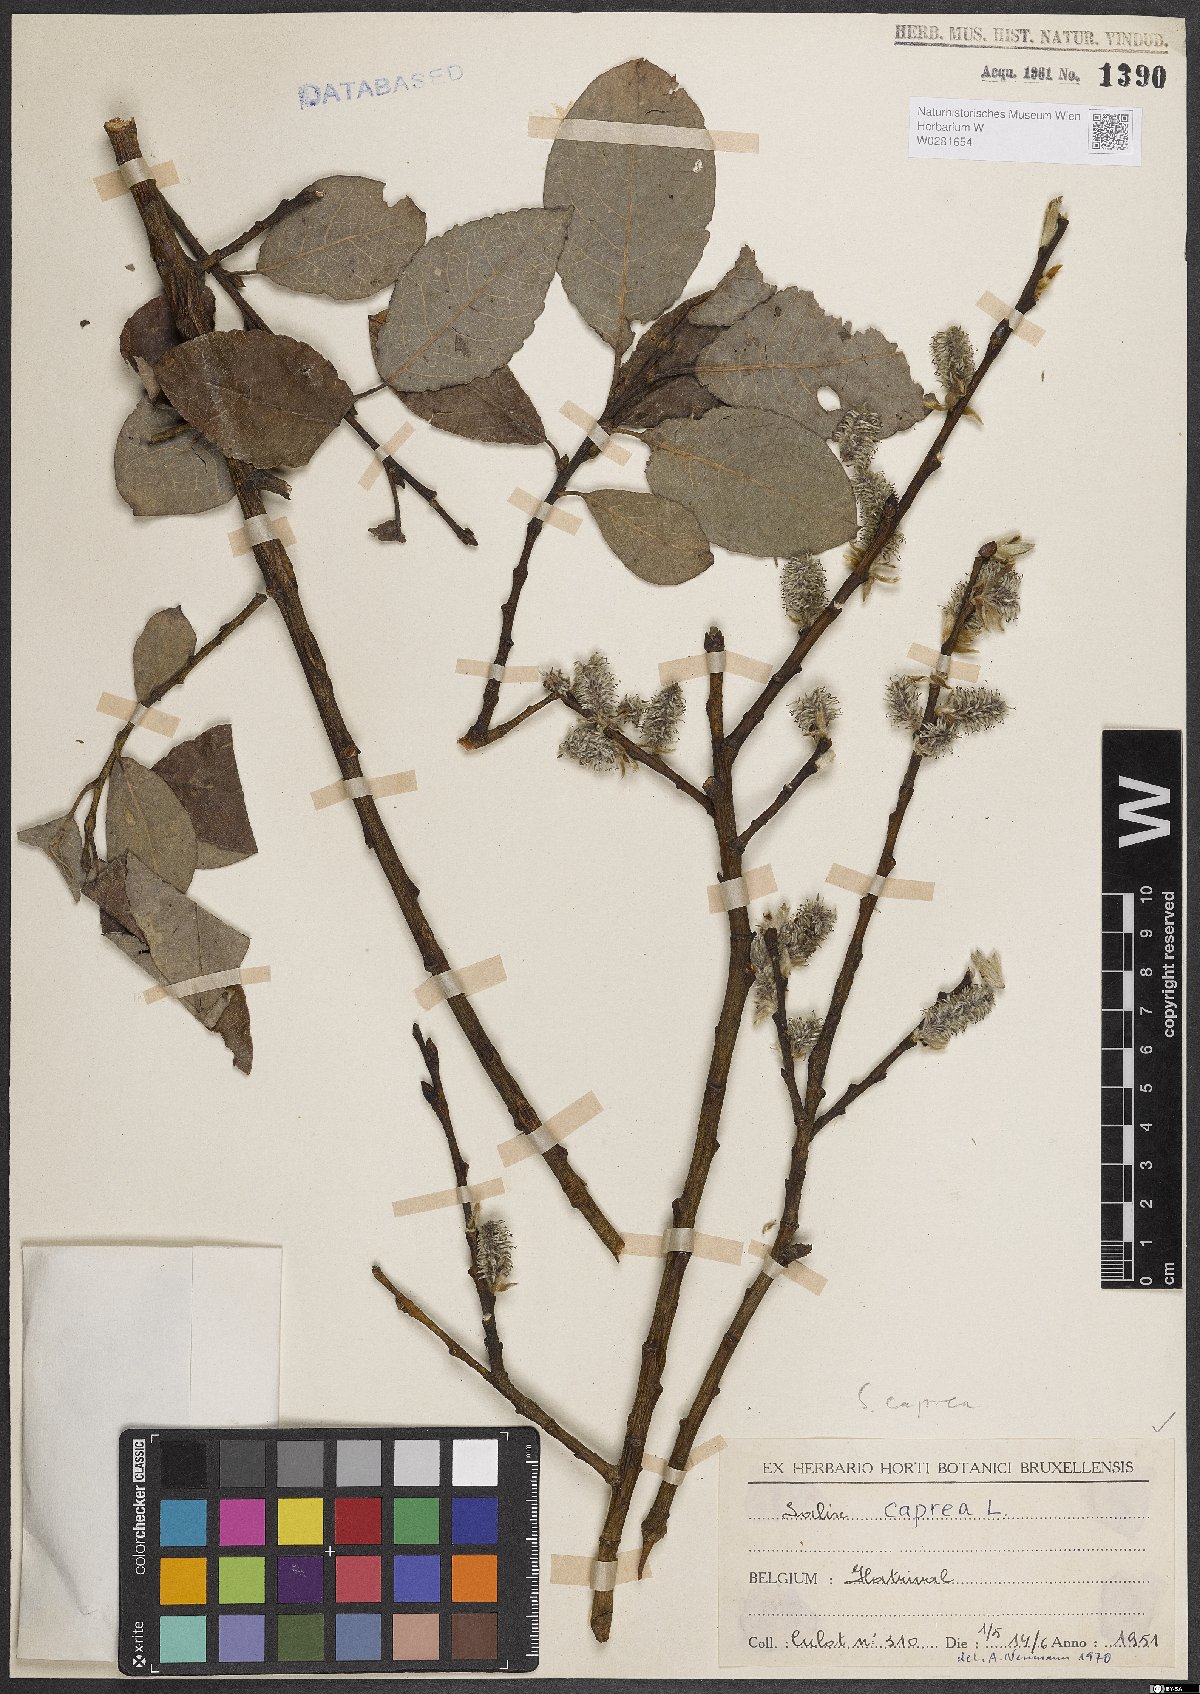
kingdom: Plantae
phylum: Tracheophyta
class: Magnoliopsida
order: Malpighiales
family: Salicaceae
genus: Salix
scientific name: Salix caprea
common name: Goat willow
